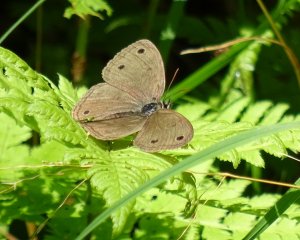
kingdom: Animalia
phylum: Arthropoda
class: Insecta
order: Lepidoptera
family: Nymphalidae
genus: Euptychia
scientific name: Euptychia cymela
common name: Little Wood Satyr
